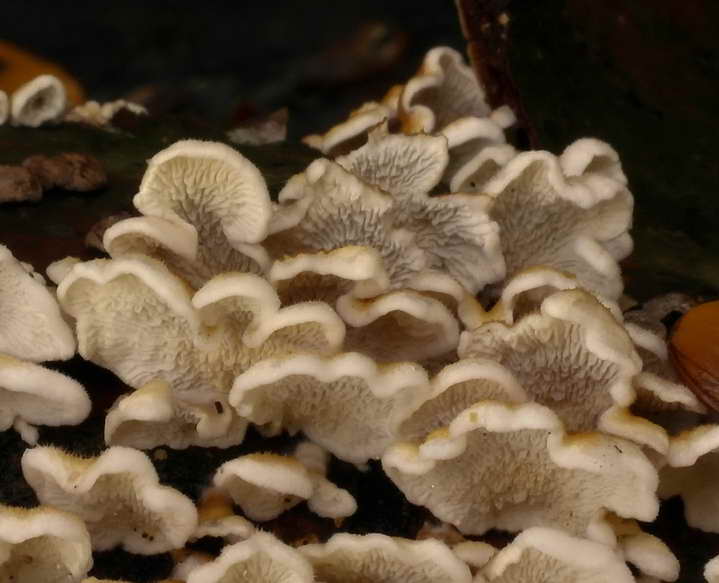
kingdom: Fungi
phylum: Basidiomycota
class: Agaricomycetes
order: Amylocorticiales
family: Amylocorticiaceae
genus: Plicaturopsis
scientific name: Plicaturopsis crispa
